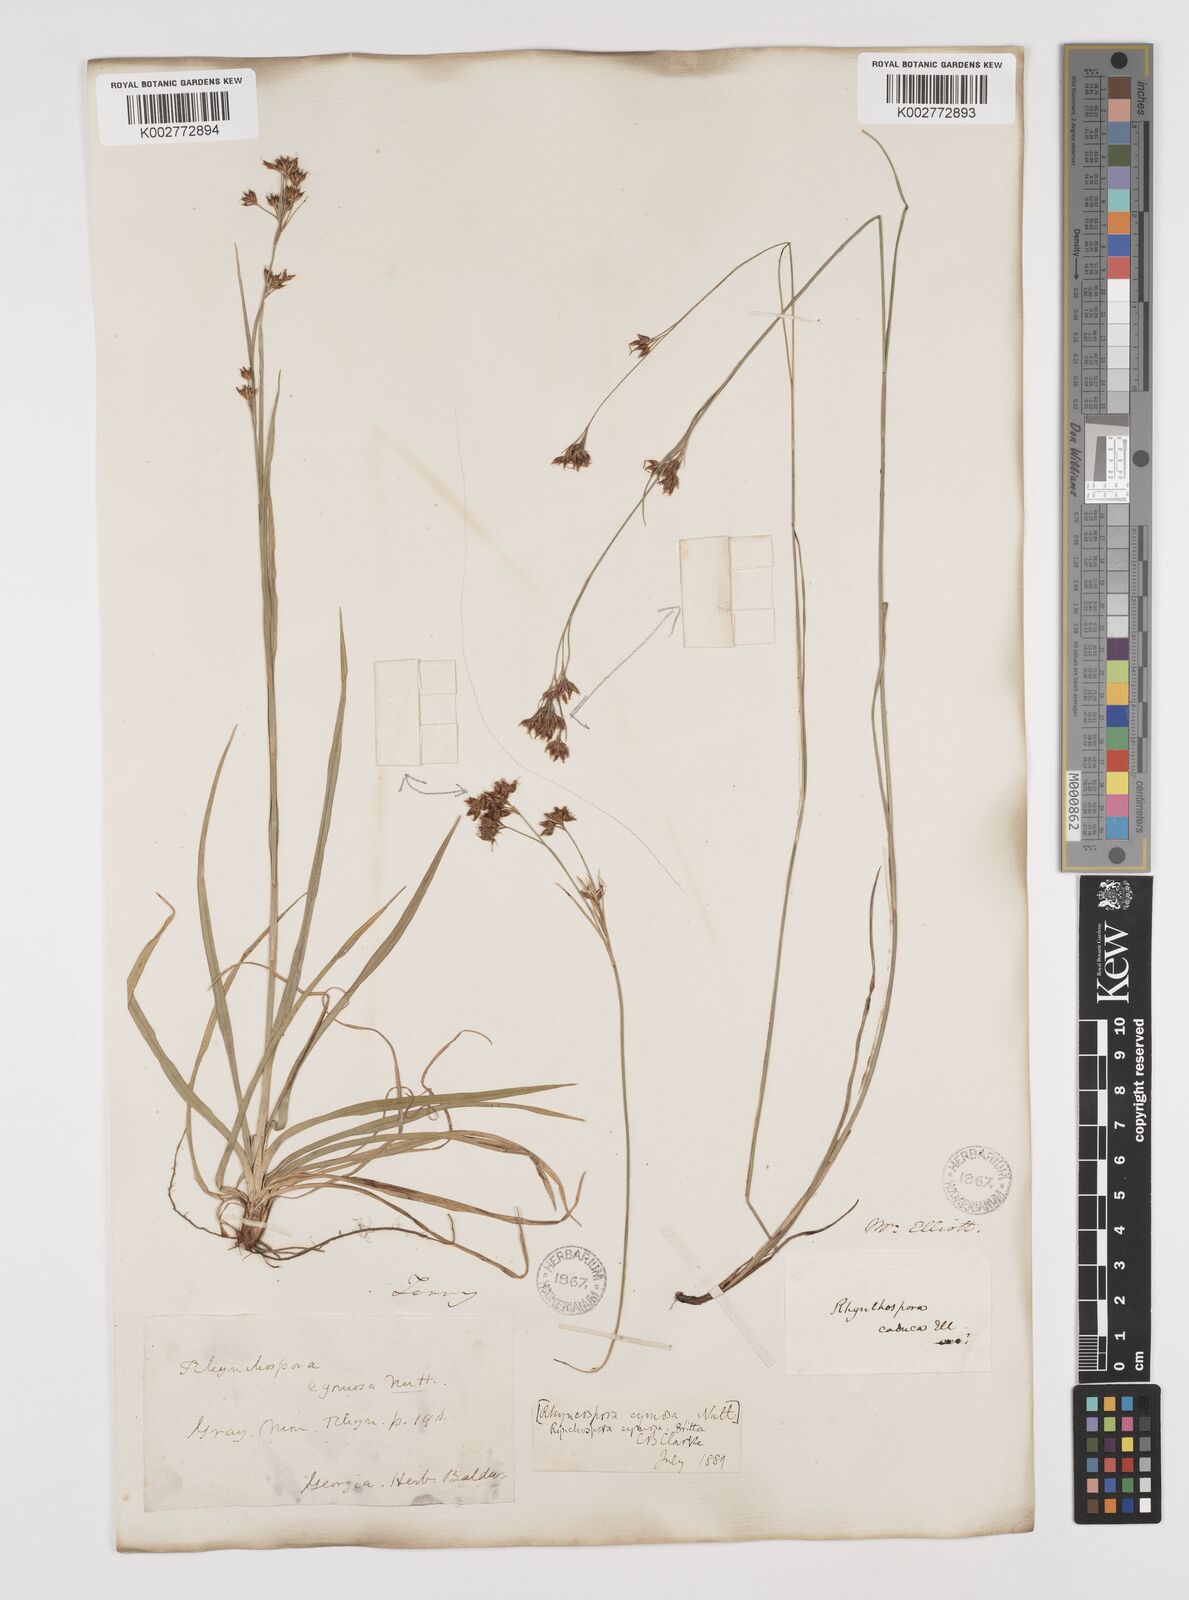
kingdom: Plantae
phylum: Tracheophyta
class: Liliopsida
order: Poales
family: Cyperaceae
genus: Scirpus
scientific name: Scirpus polyphyllus
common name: Leafy bulrush
